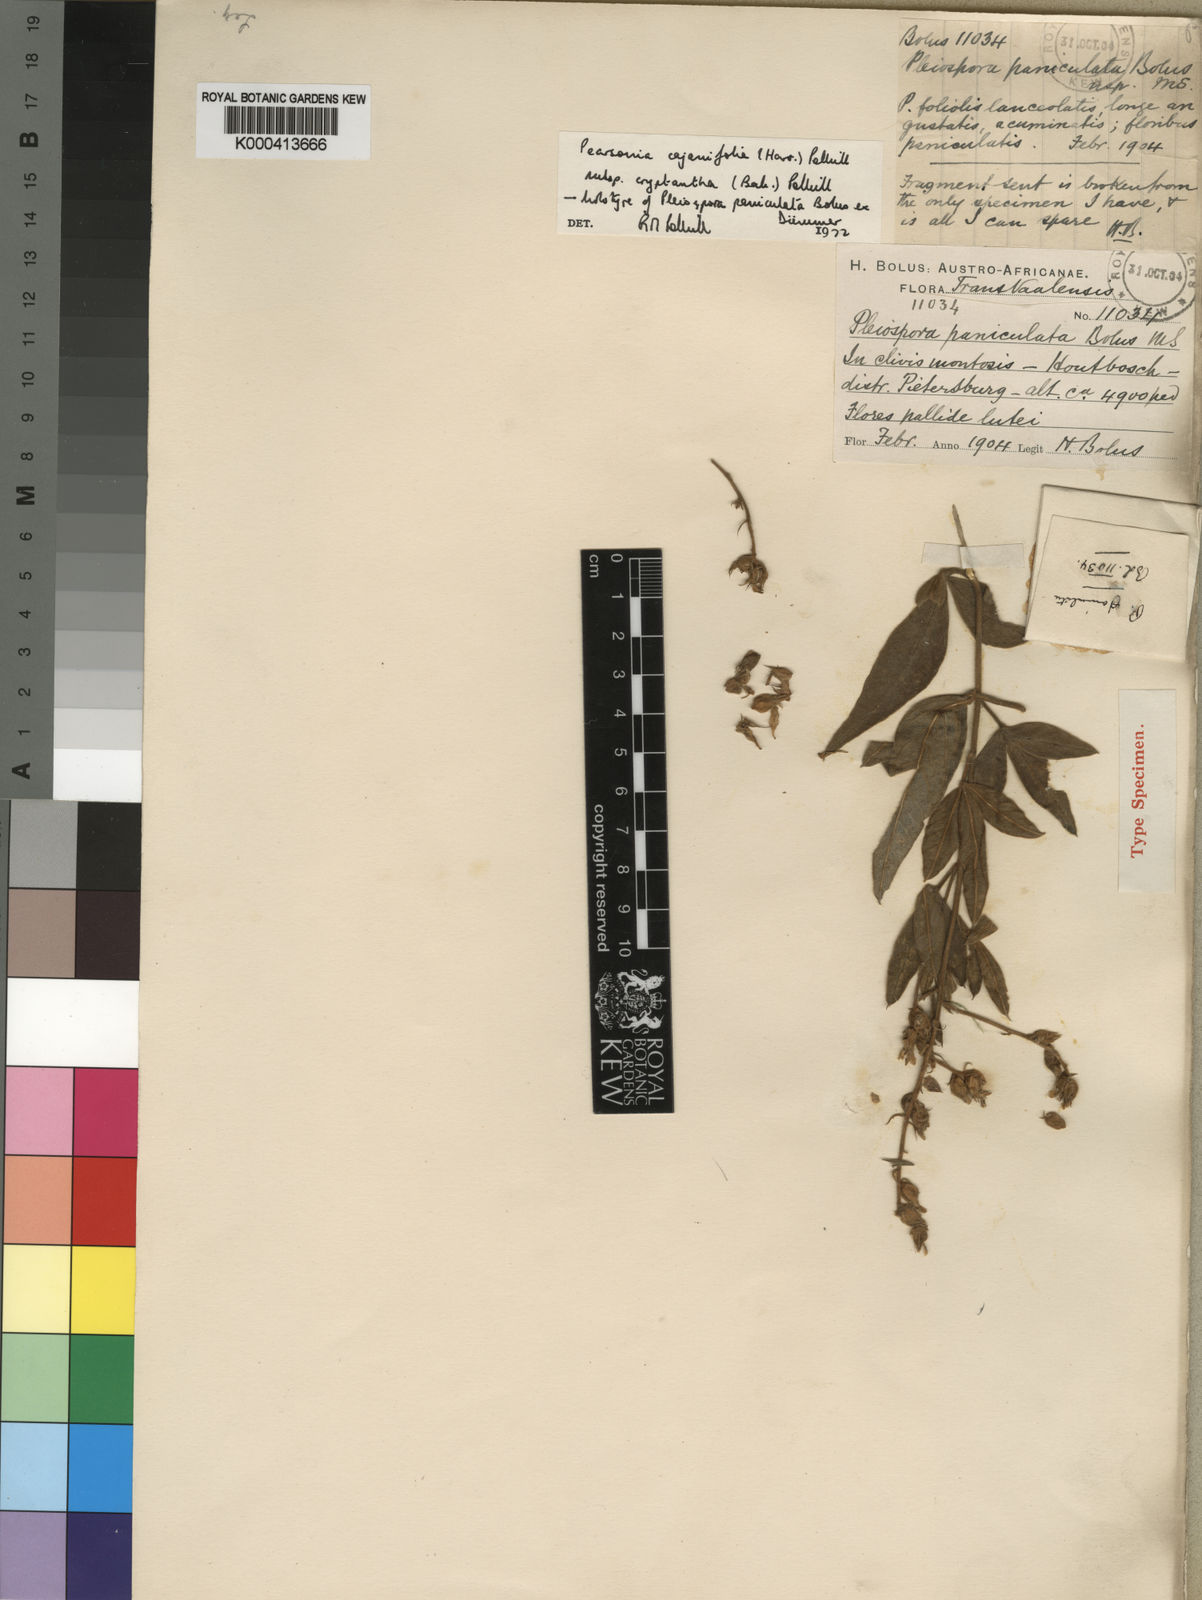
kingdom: Plantae
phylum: Tracheophyta
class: Magnoliopsida
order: Fabales
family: Fabaceae
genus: Pearsonia
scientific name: Pearsonia cajanifolia
